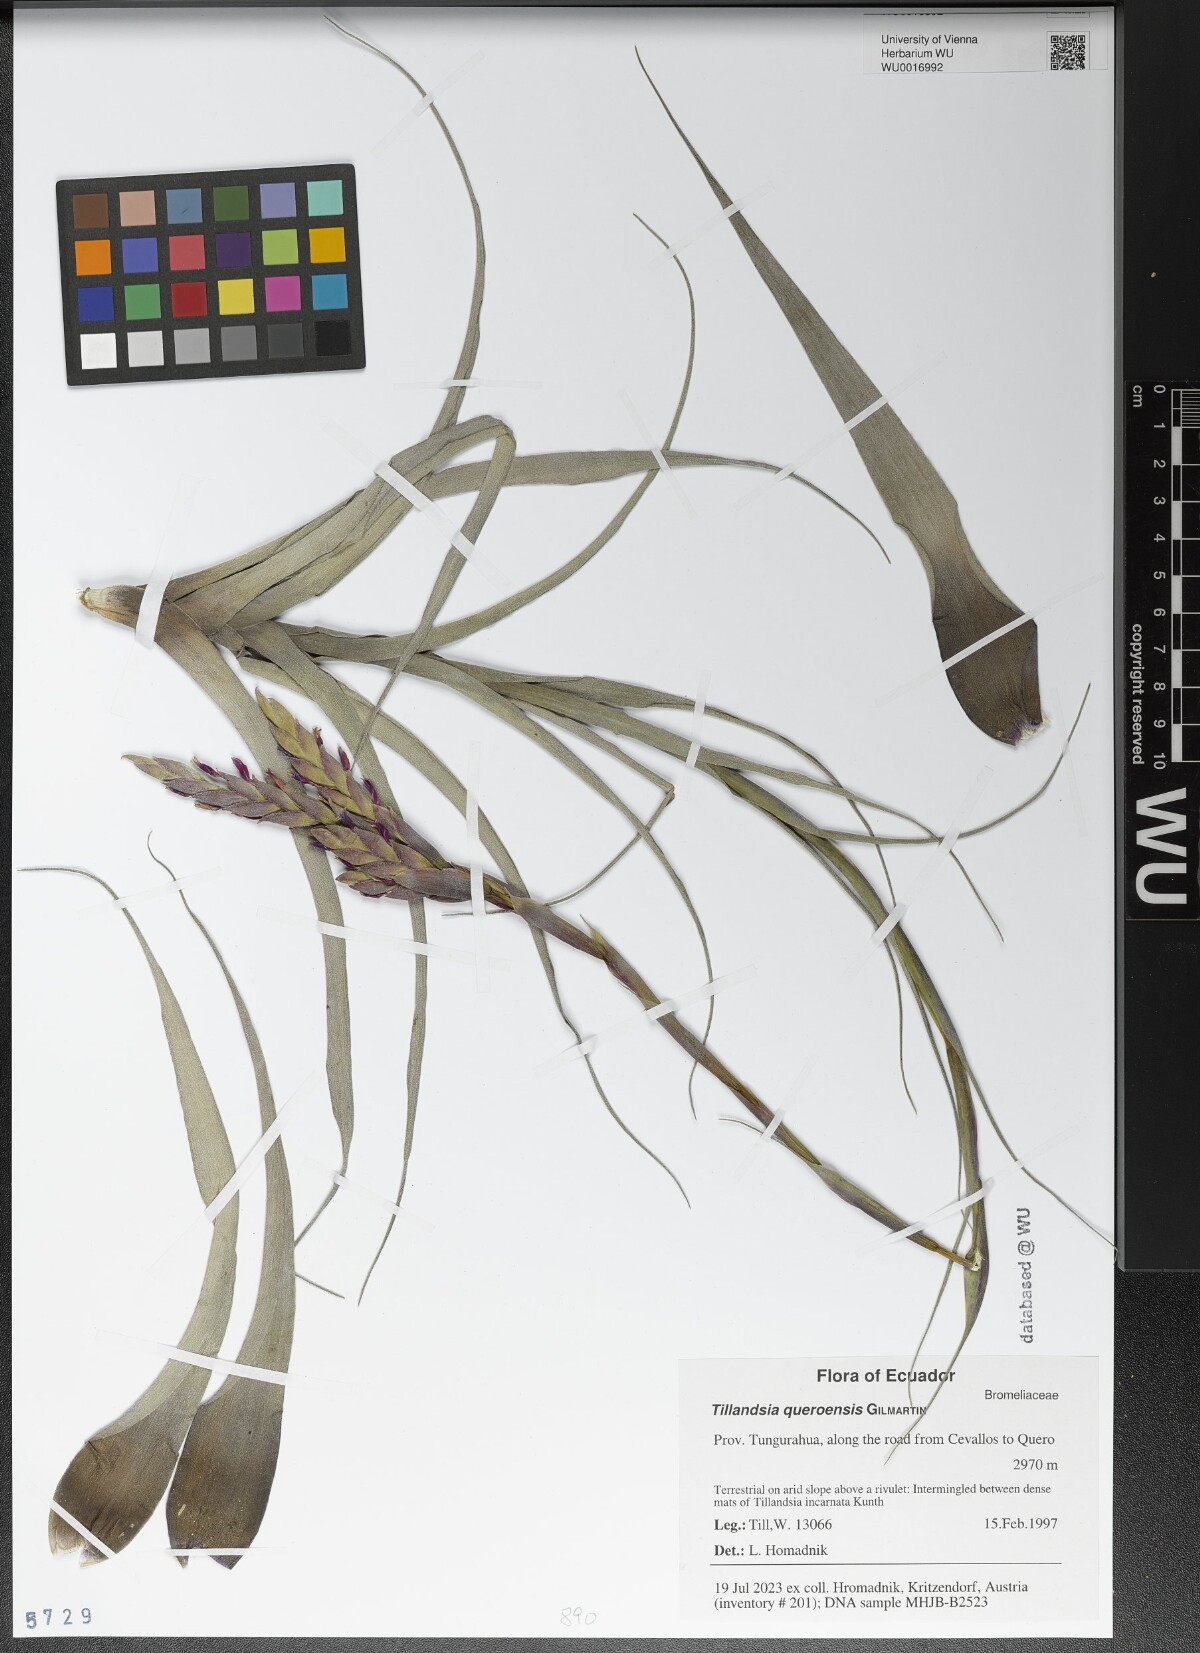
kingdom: Plantae
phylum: Tracheophyta
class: Liliopsida
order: Poales
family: Bromeliaceae
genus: Tillandsia
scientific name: Tillandsia queroensis
